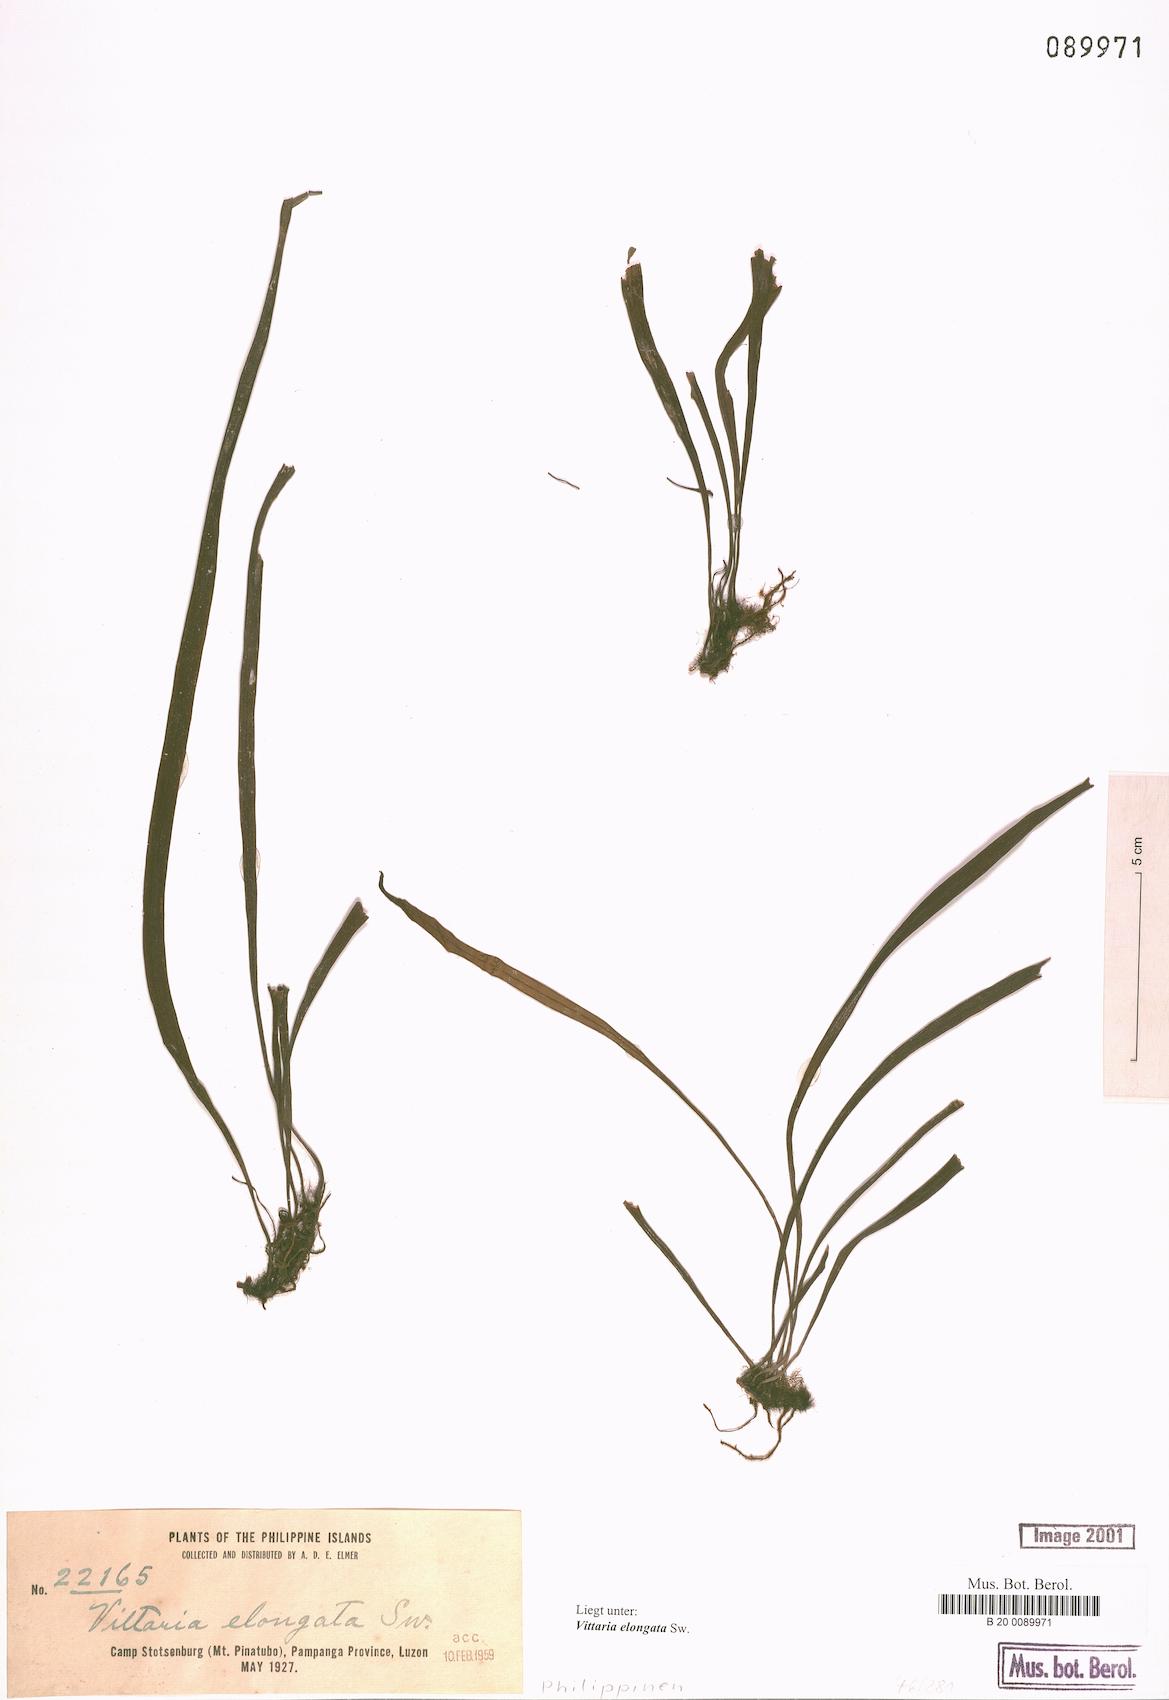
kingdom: Plantae
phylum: Tracheophyta
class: Polypodiopsida
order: Polypodiales
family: Pteridaceae
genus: Haplopteris
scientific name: Haplopteris elongata
